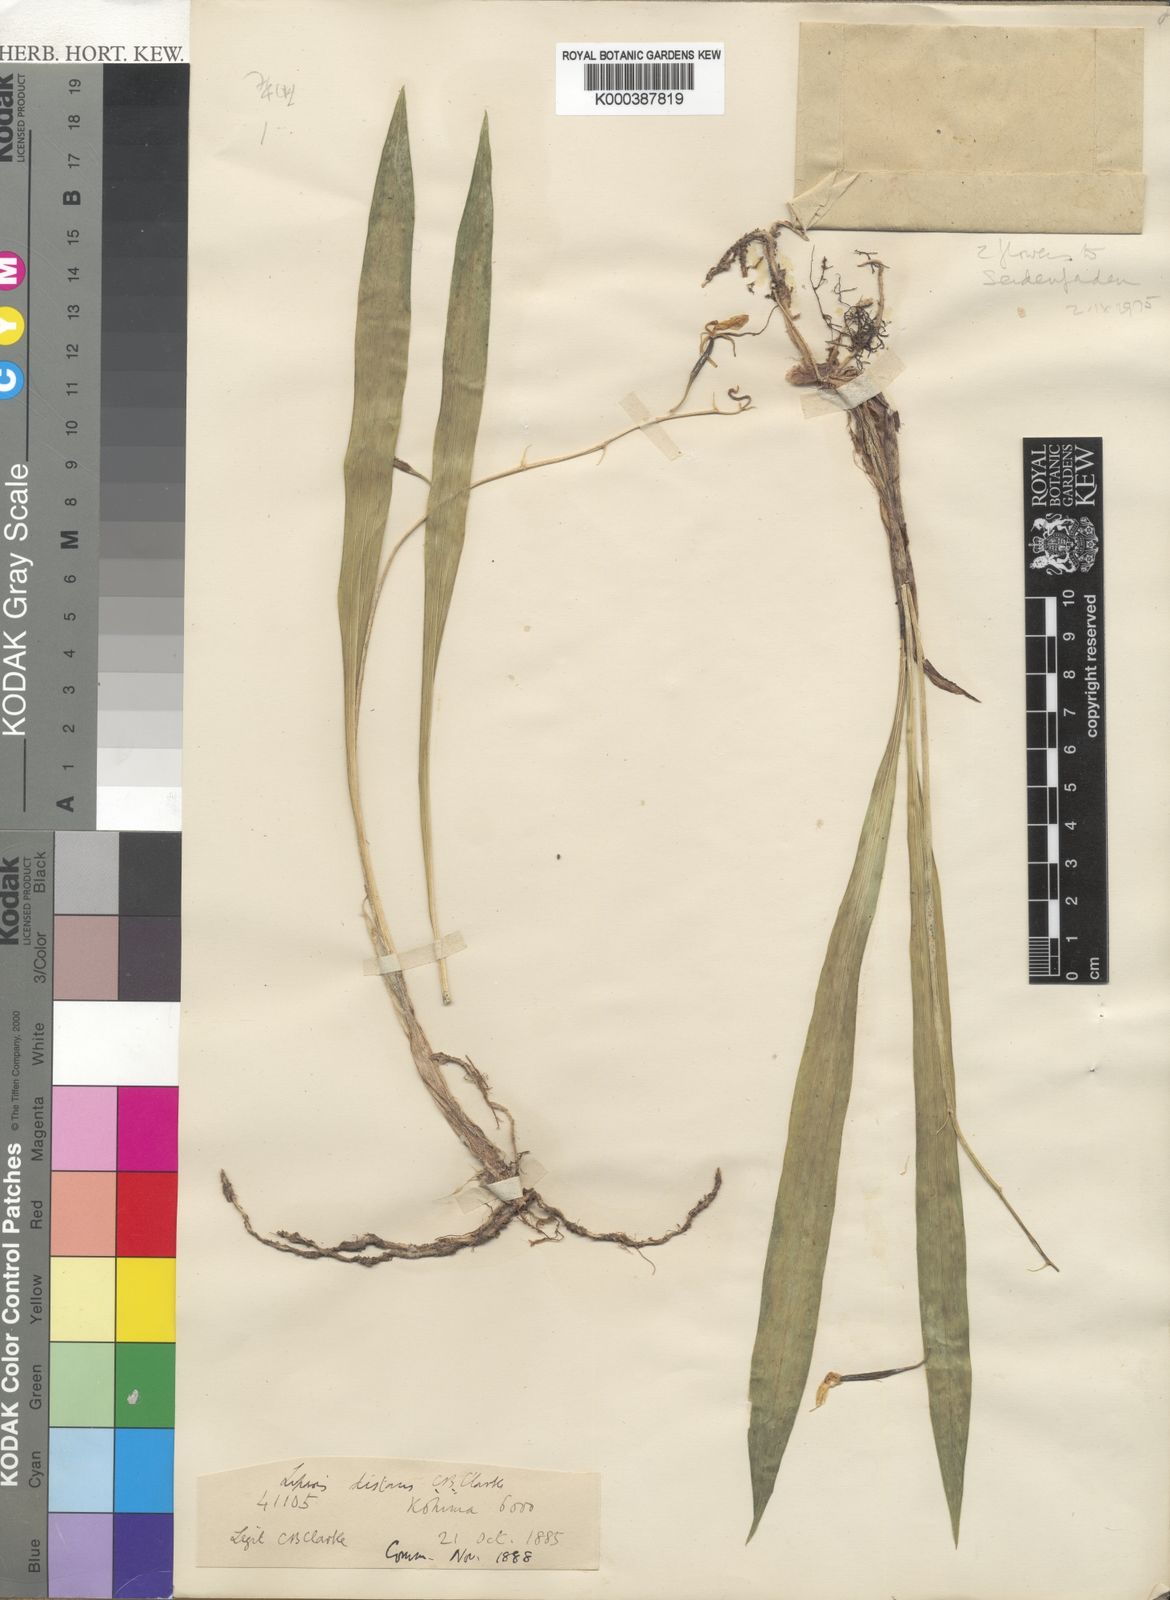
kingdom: Plantae
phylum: Tracheophyta
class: Liliopsida
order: Asparagales
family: Orchidaceae
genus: Liparis
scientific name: Liparis distans
